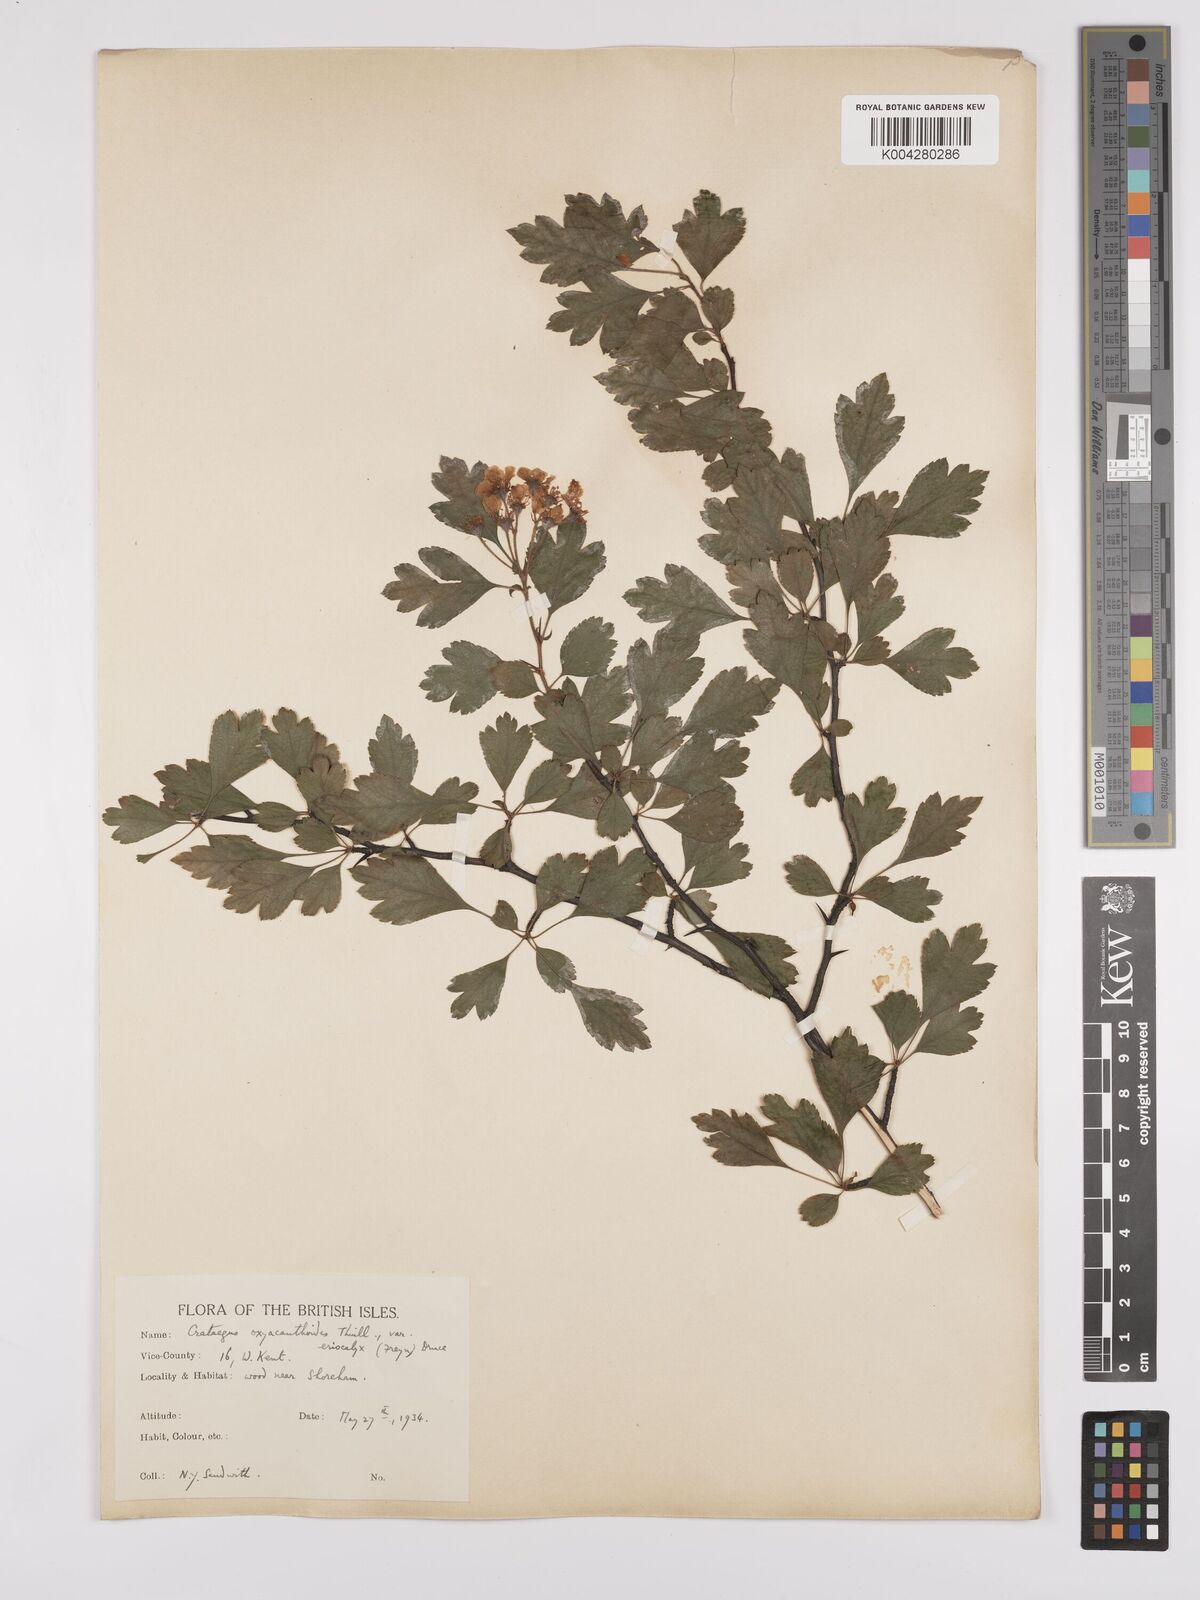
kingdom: Plantae
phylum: Tracheophyta
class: Magnoliopsida
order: Rosales
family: Rosaceae
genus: Crataegus
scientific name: Crataegus laevigata
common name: Midland hawthorn
